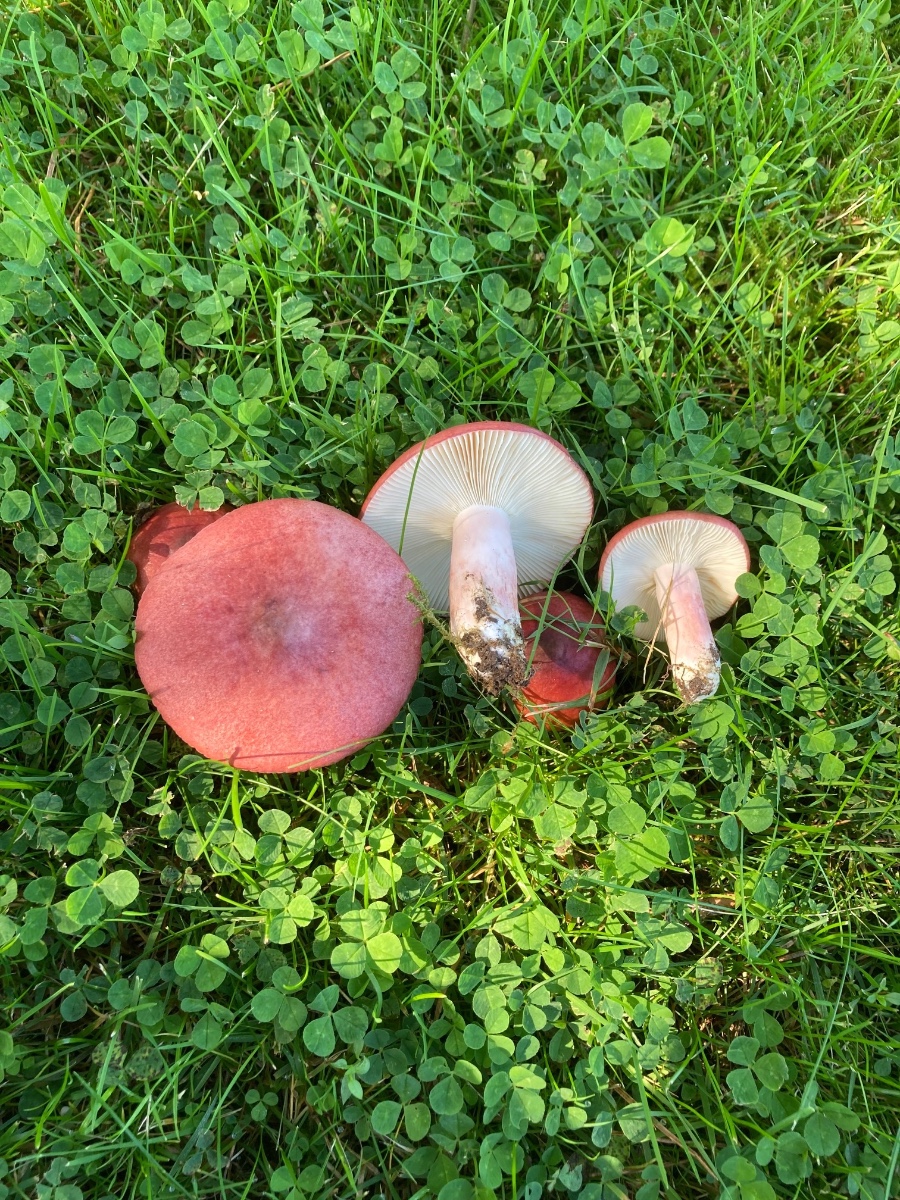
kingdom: Fungi
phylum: Basidiomycota
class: Agaricomycetes
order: Russulales
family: Russulaceae
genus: Russula
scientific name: Russula sanguinea
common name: blodrød skørhat
